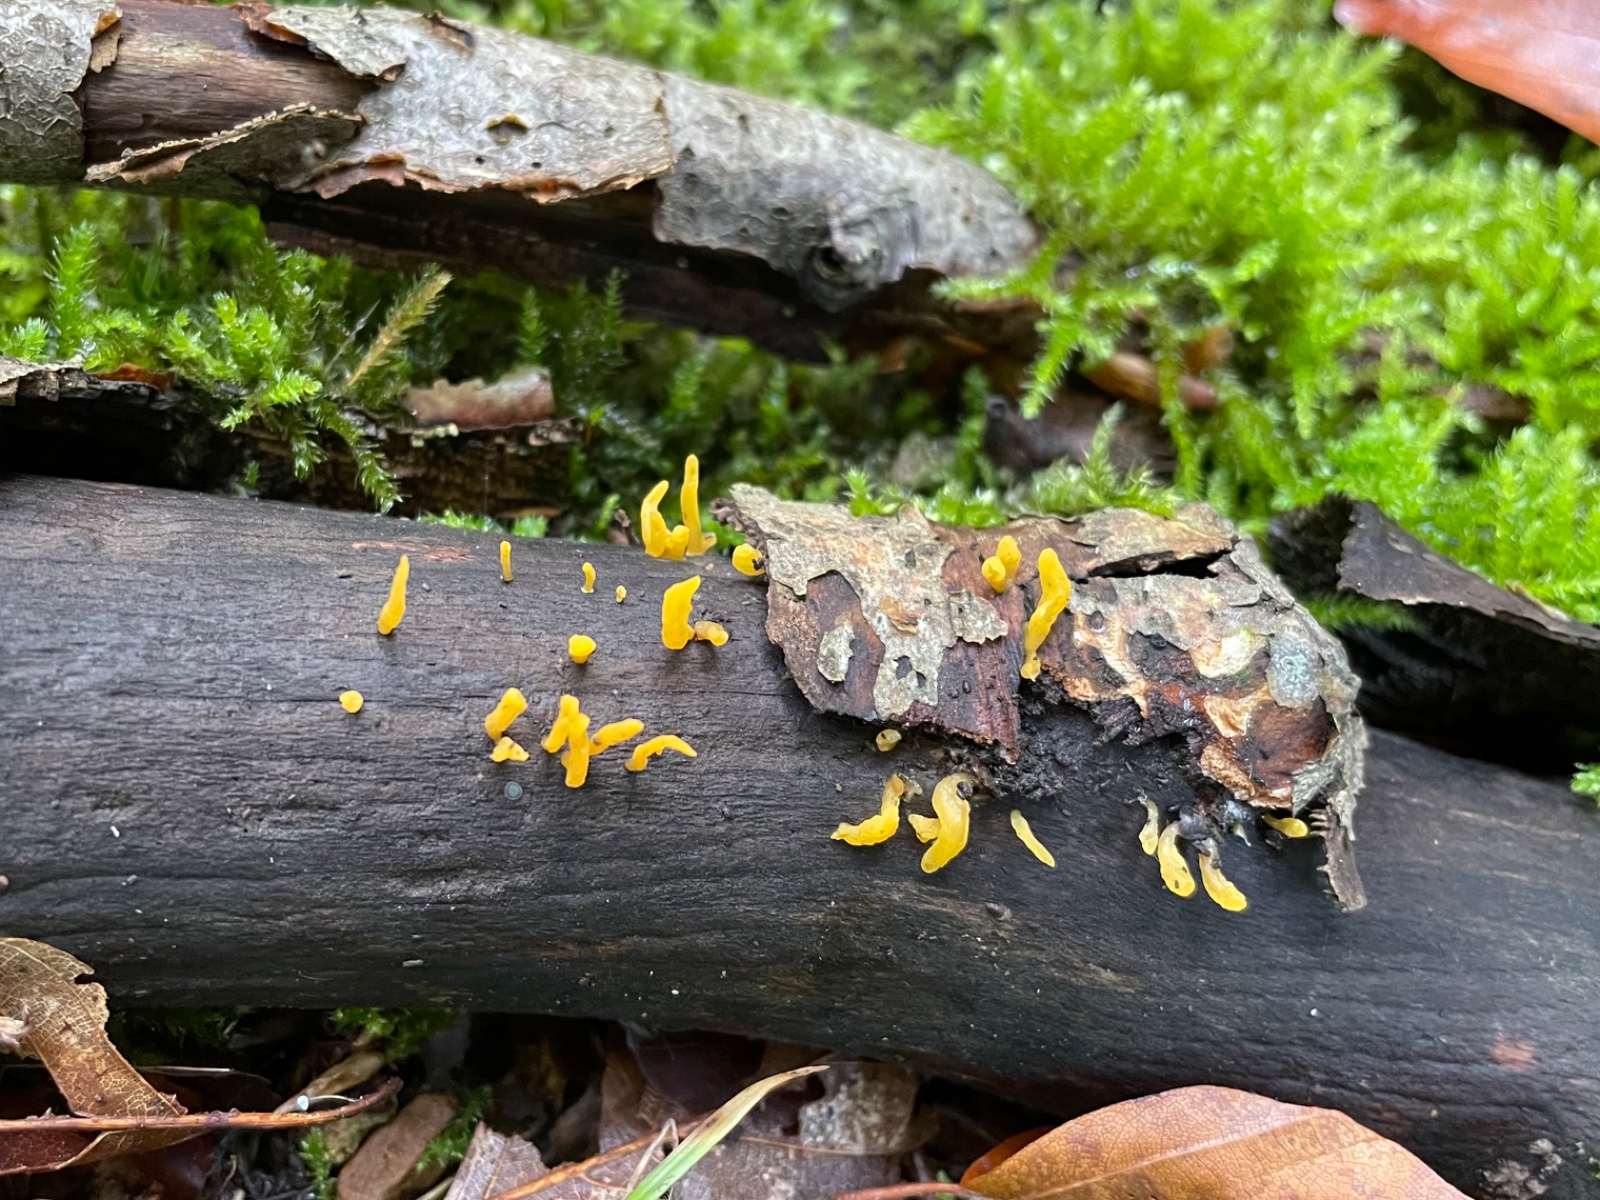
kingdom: Fungi
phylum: Basidiomycota
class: Dacrymycetes
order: Dacrymycetales
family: Dacrymycetaceae
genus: Calocera
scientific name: Calocera cornea
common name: liden guldgaffel
